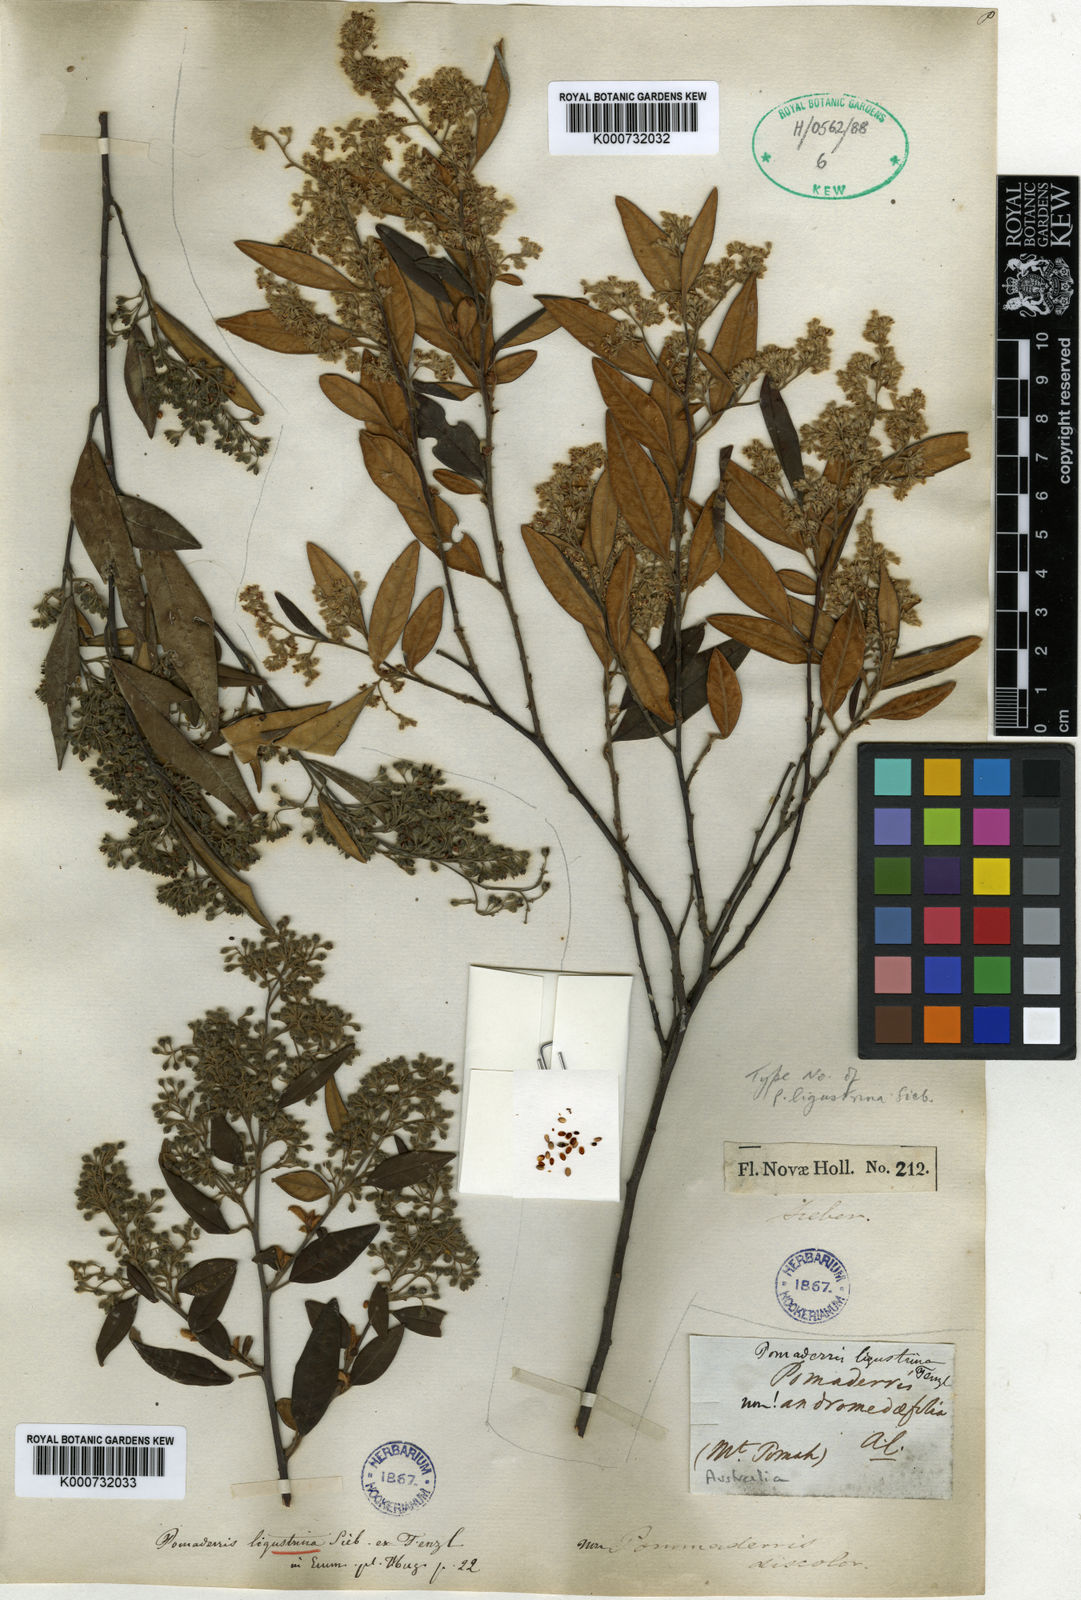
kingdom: Plantae
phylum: Tracheophyta
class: Magnoliopsida
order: Rosales
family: Rhamnaceae
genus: Pomaderris
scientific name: Pomaderris
